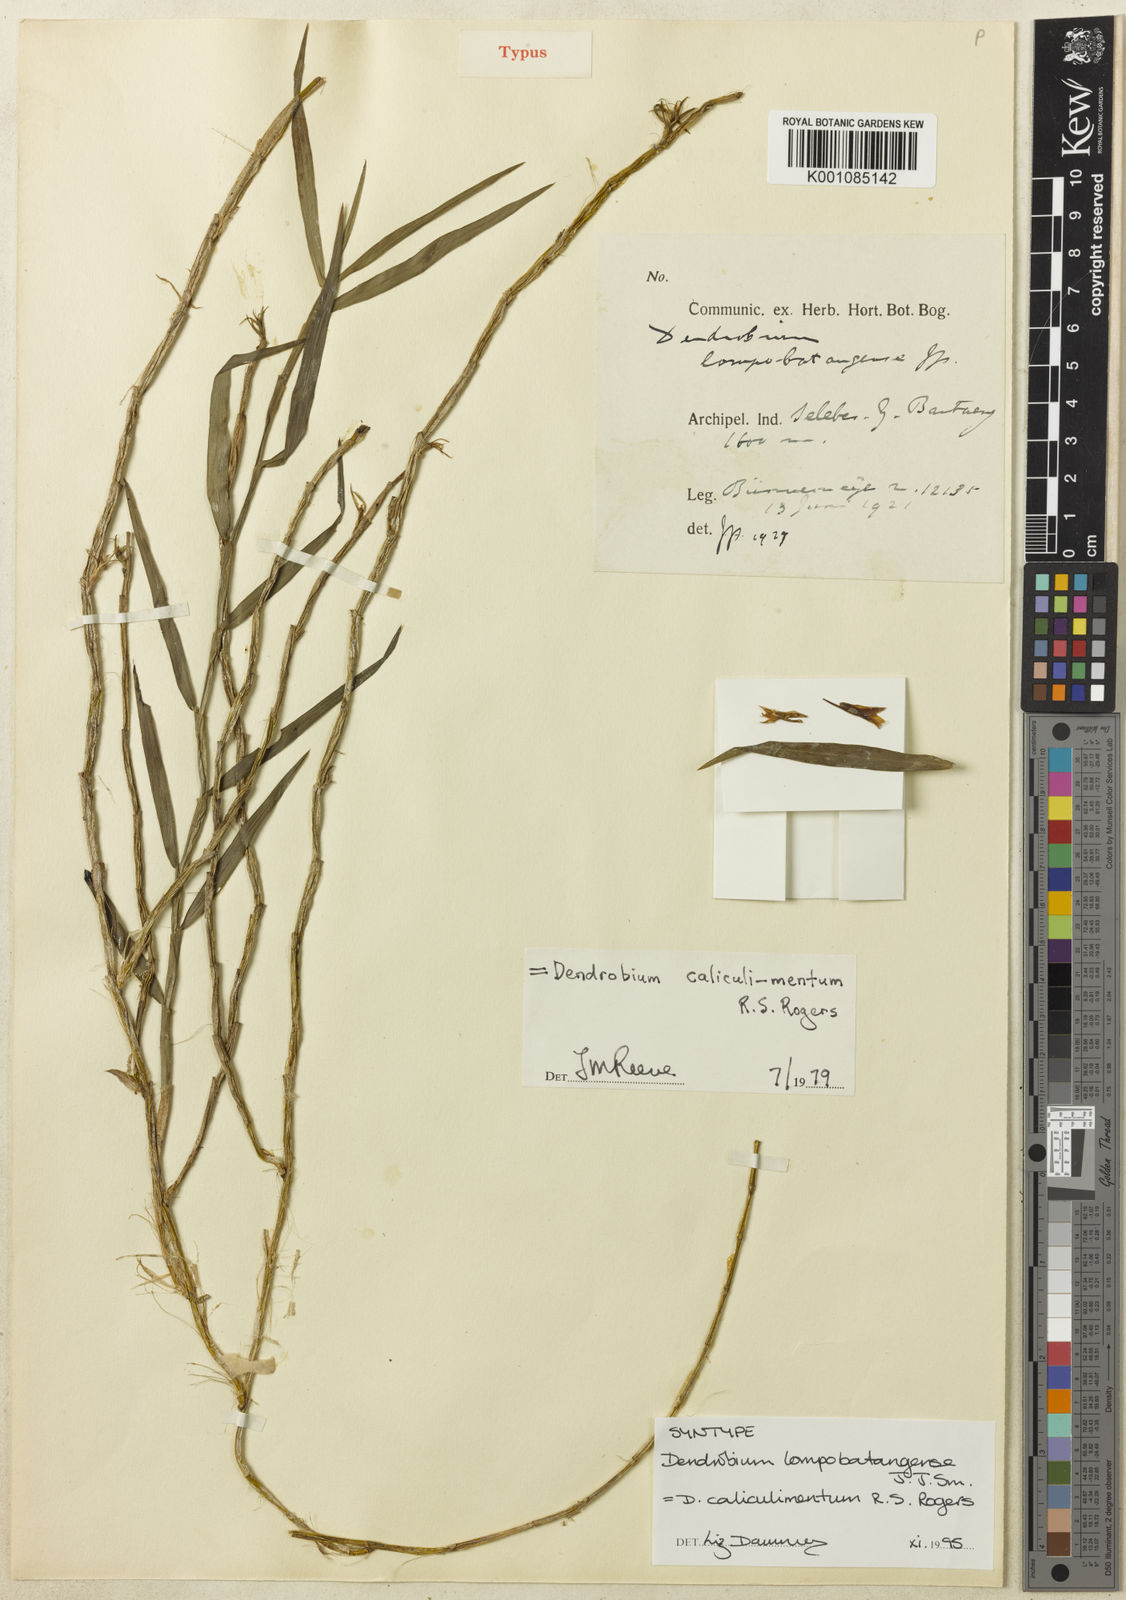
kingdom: Plantae
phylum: Tracheophyta
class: Liliopsida
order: Asparagales
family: Orchidaceae
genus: Dendrobium
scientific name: Dendrobium caliculi-mentum
